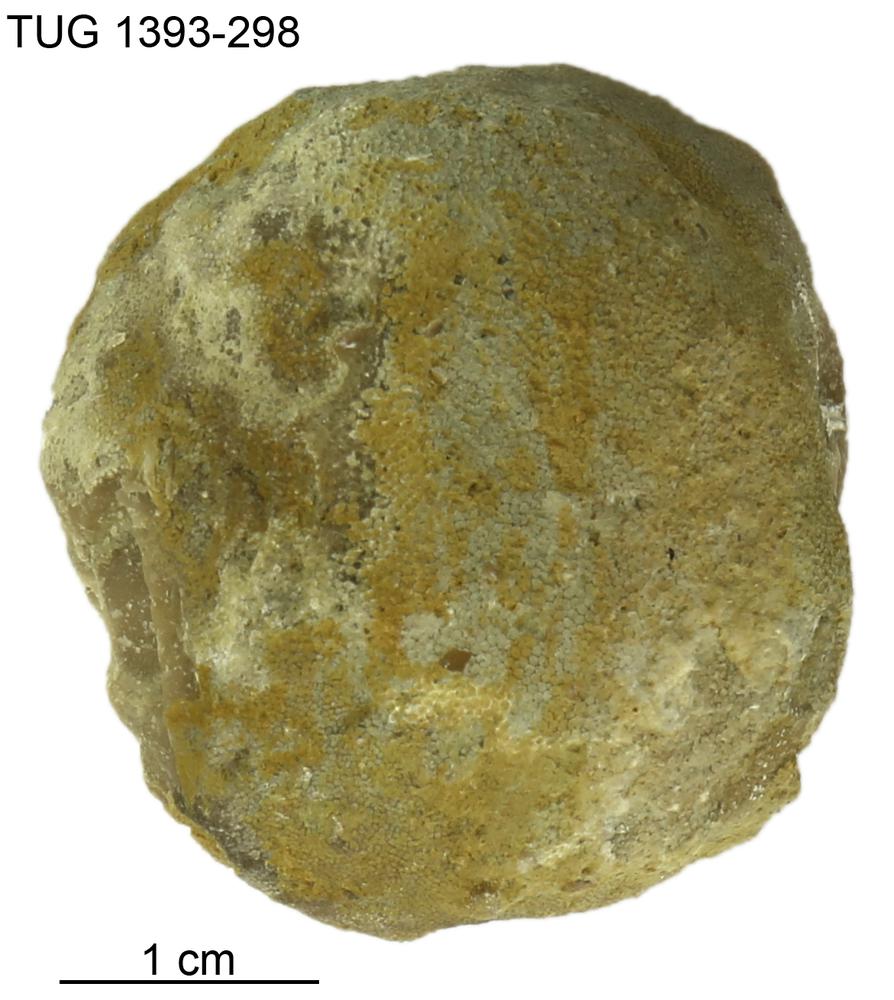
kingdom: Animalia
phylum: Bryozoa
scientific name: Bryozoa
